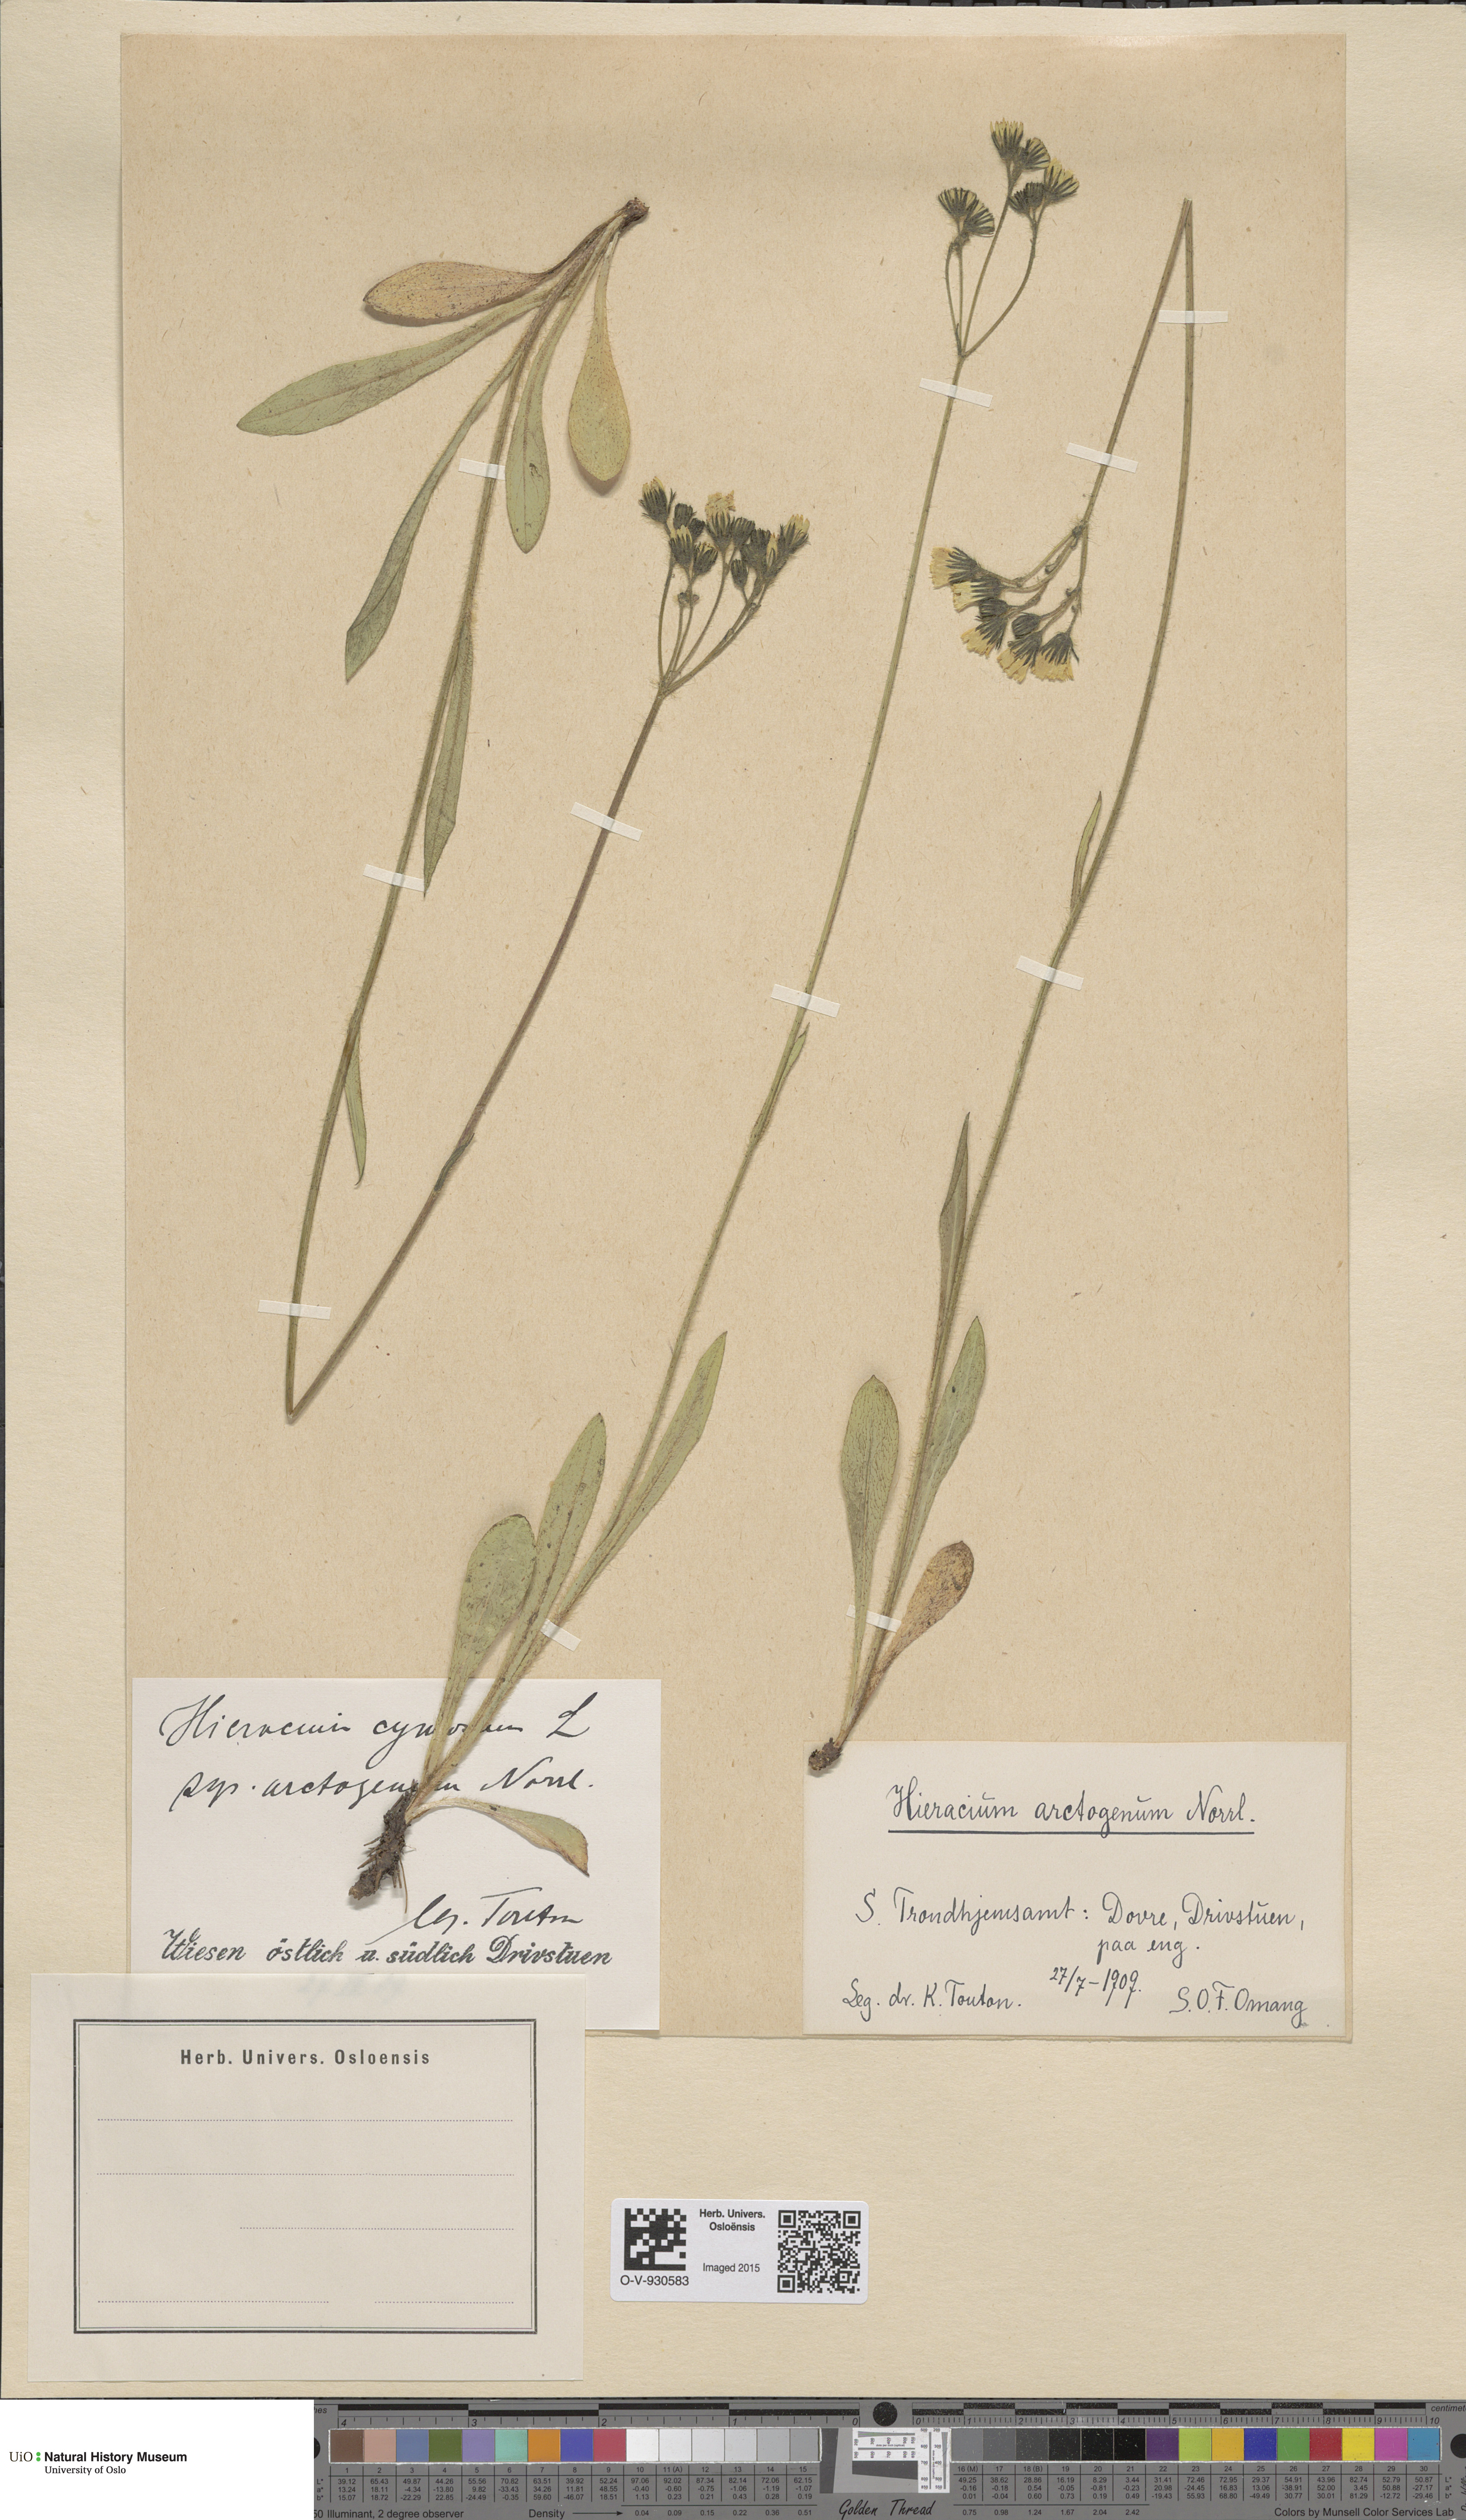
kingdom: Plantae
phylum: Tracheophyta
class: Magnoliopsida
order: Asterales
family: Asteraceae
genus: Pilosella
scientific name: Pilosella cymosa
